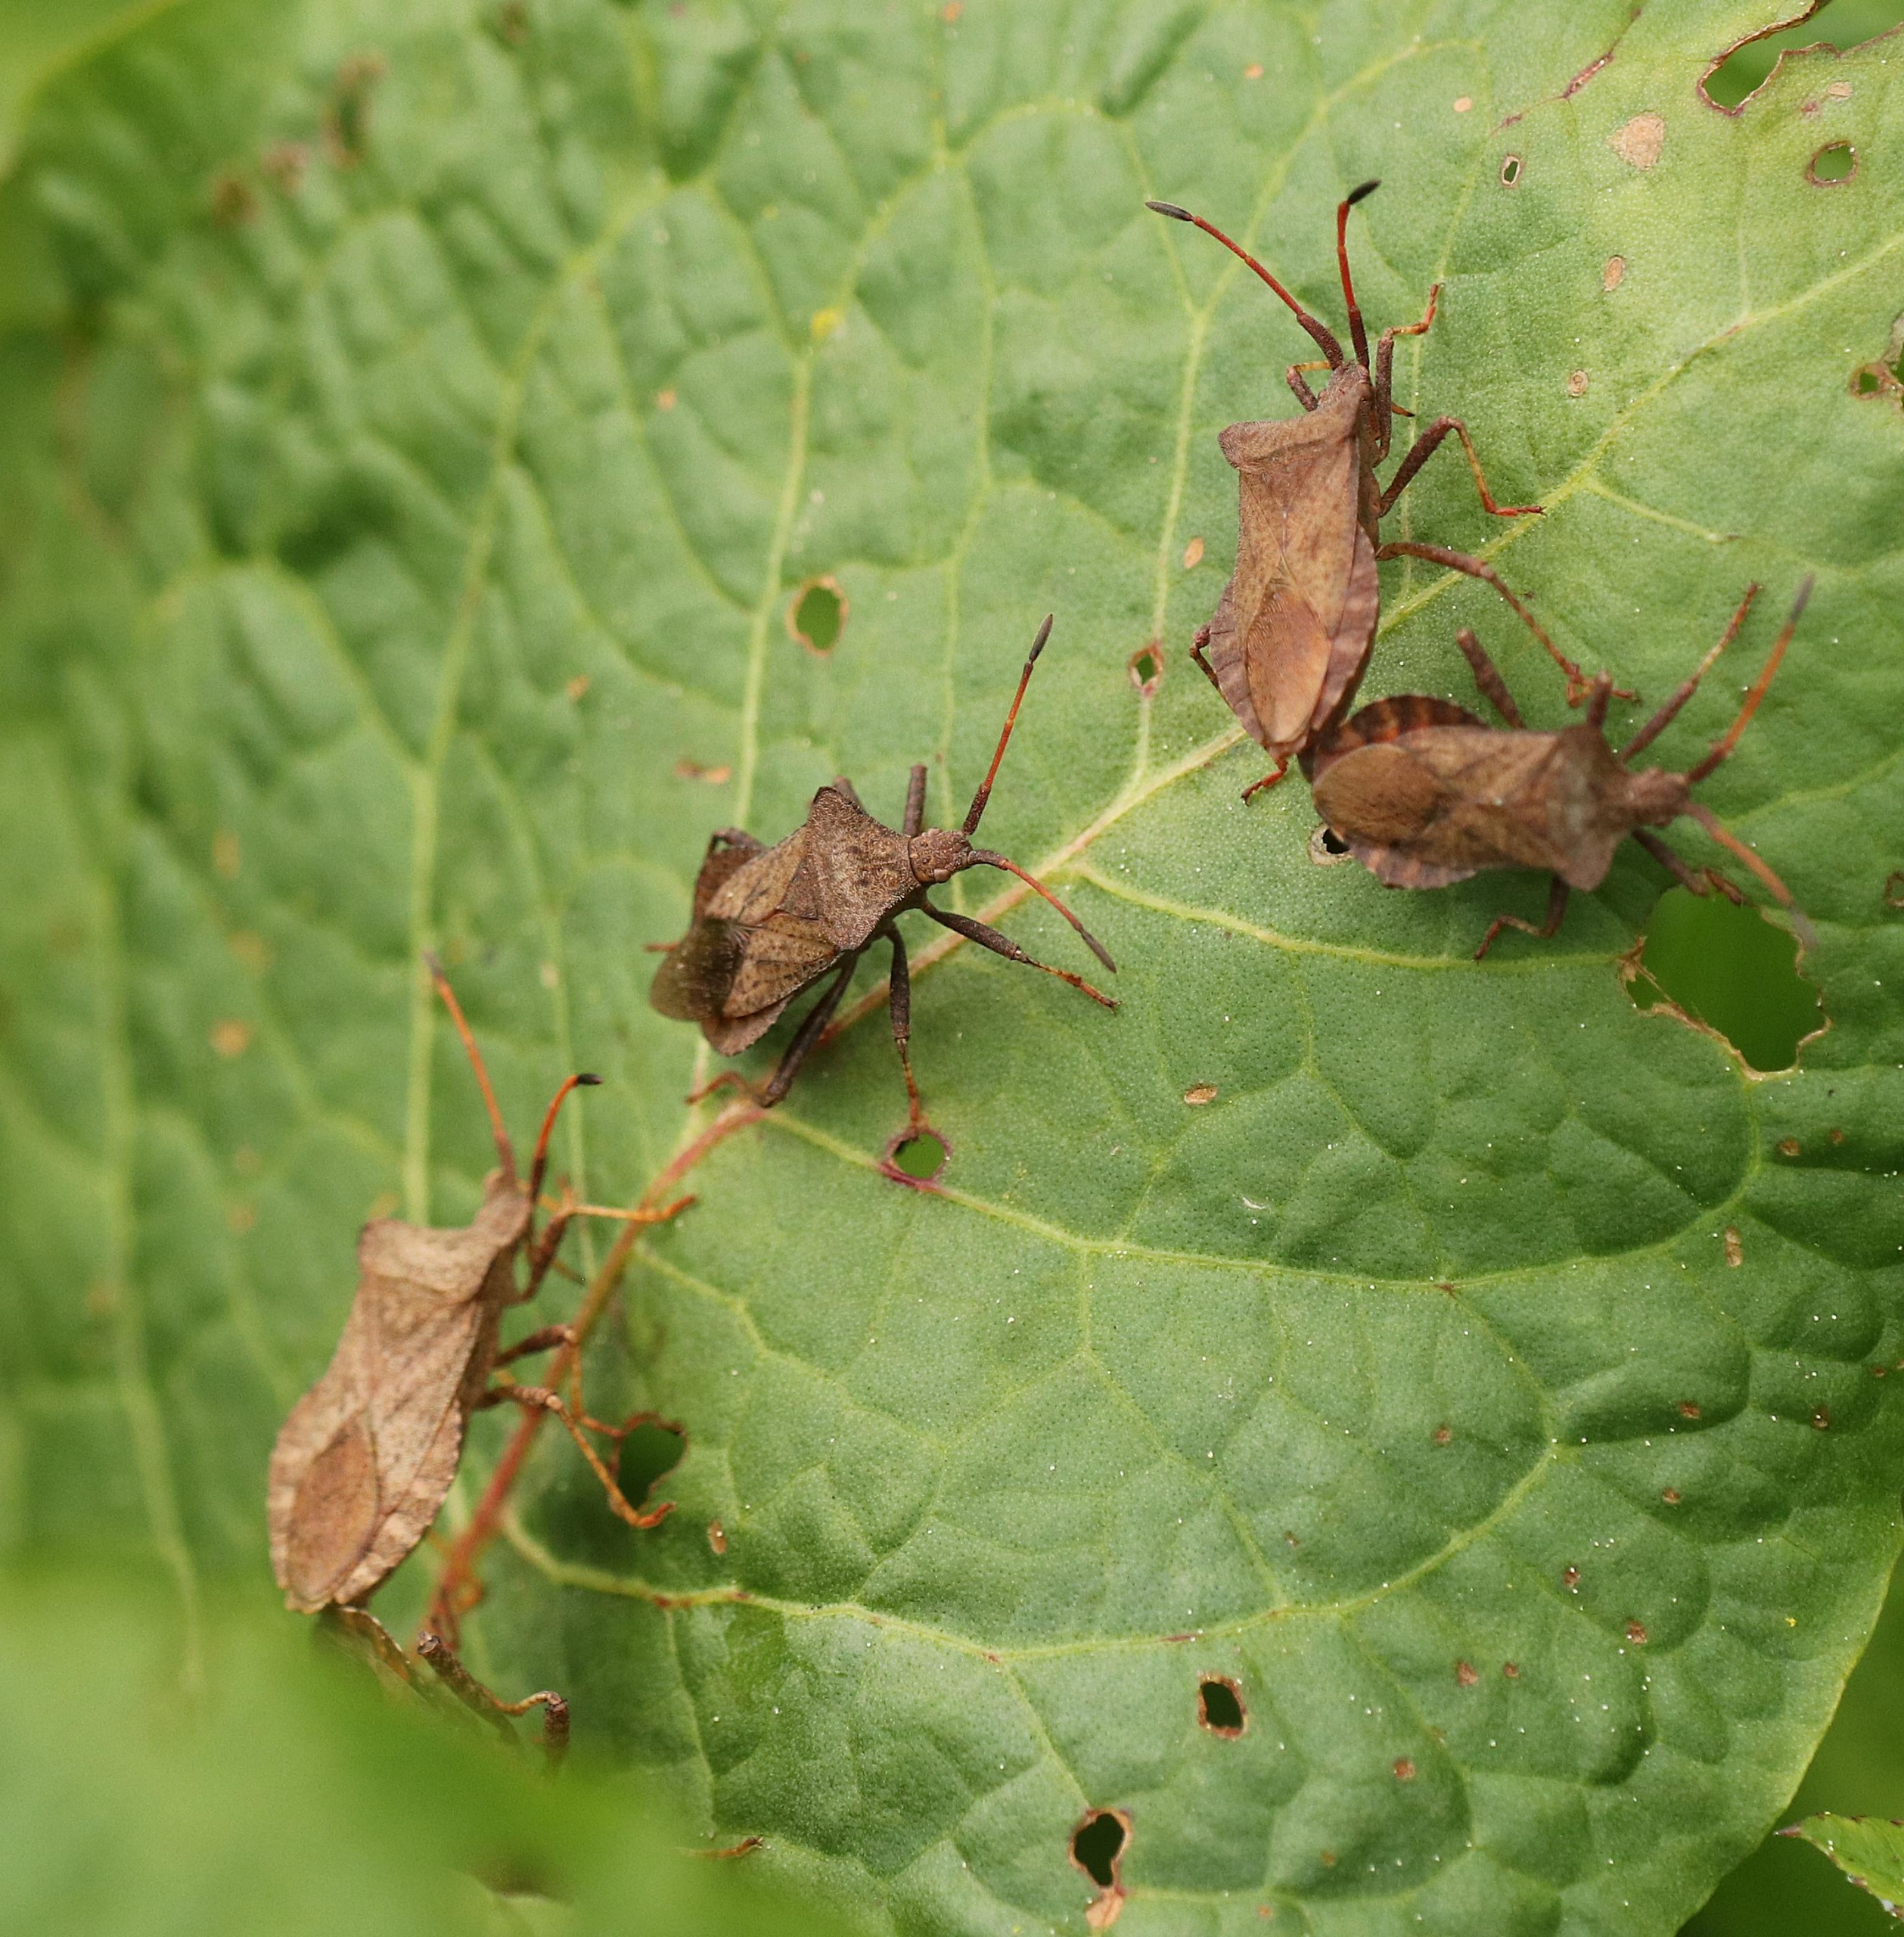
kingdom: Animalia
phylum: Arthropoda
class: Insecta
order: Hemiptera
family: Coreidae
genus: Coreus
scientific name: Coreus marginatus
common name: Skræppetæge
